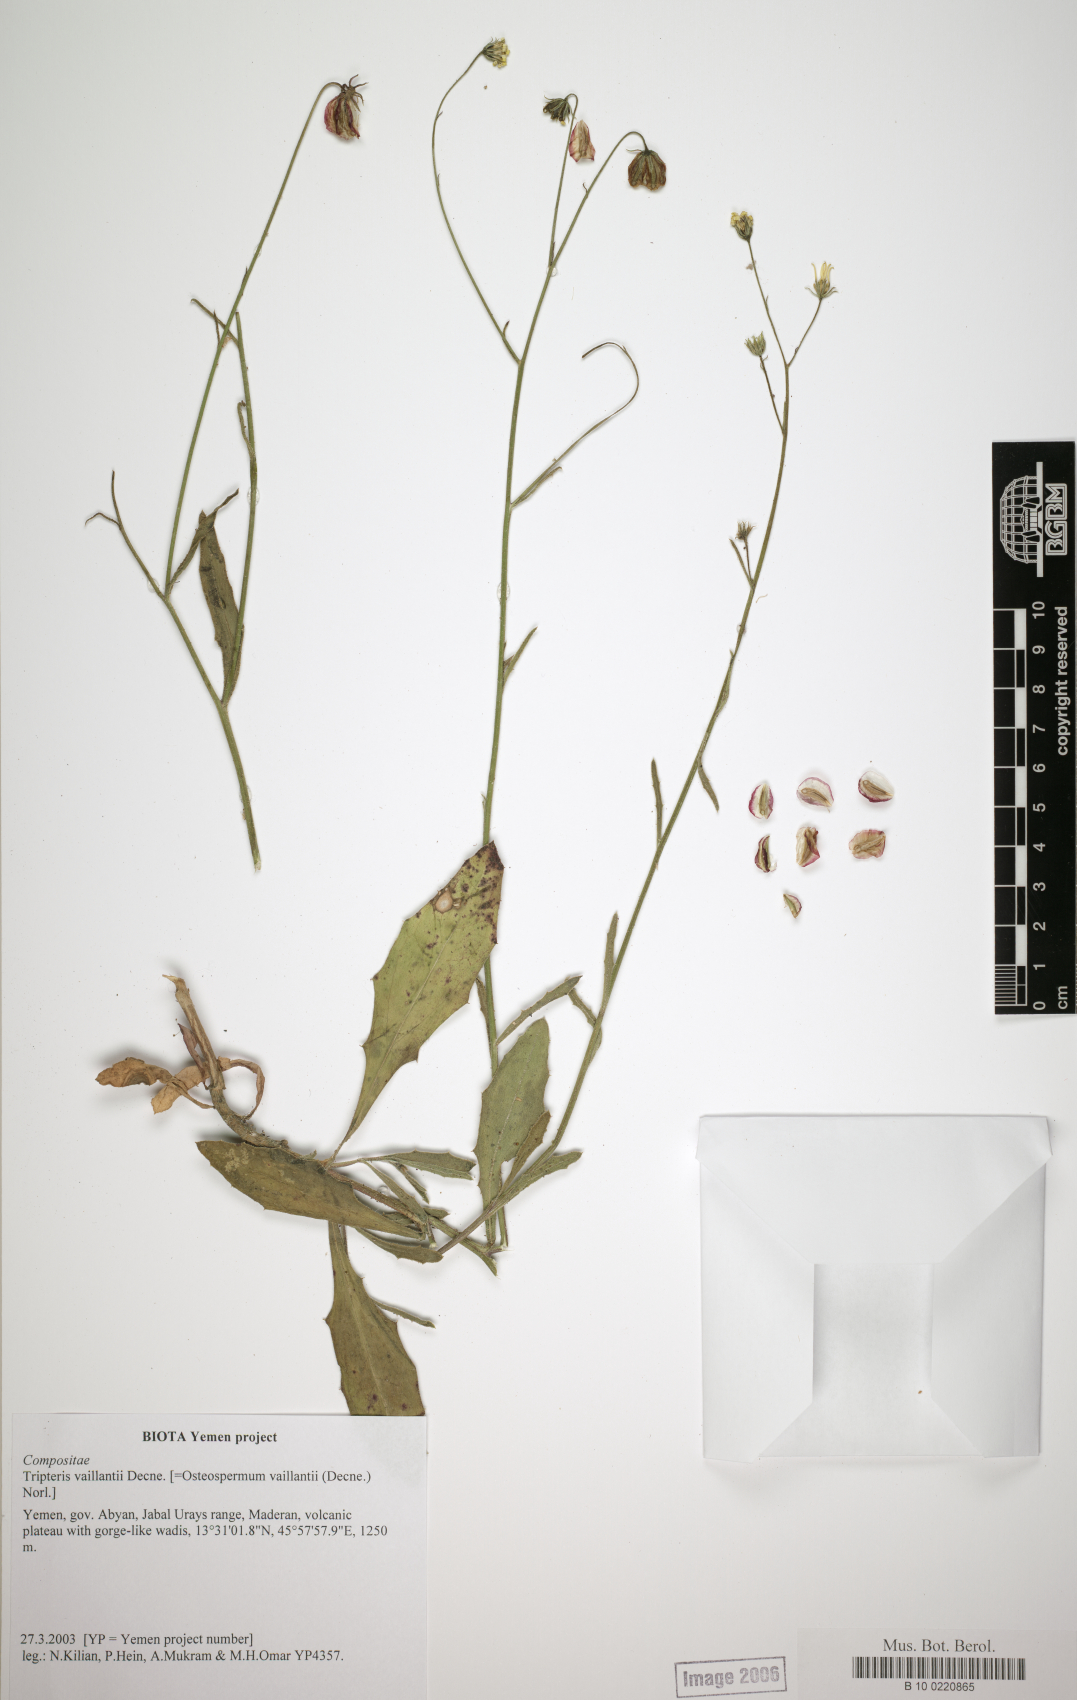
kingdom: Plantae
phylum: Tracheophyta
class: Magnoliopsida
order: Asterales
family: Asteraceae
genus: Osteospermum
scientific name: Osteospermum vaillantii
